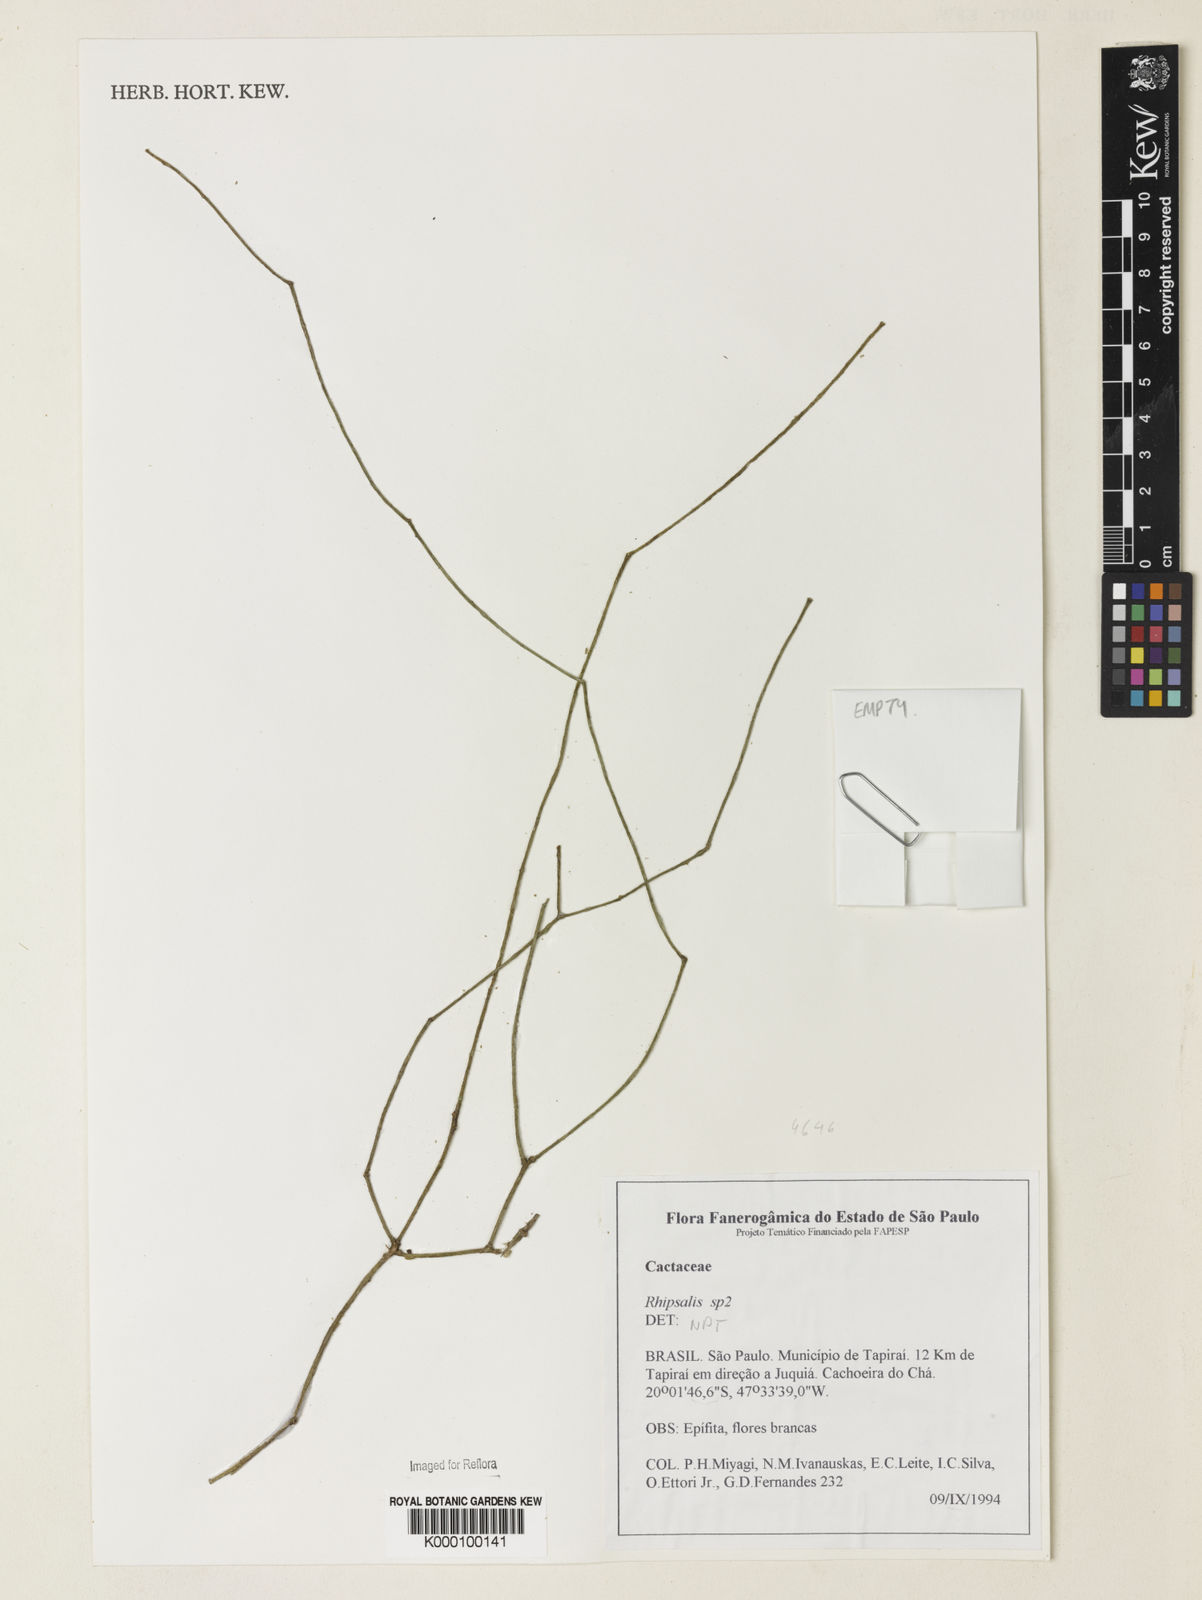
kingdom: Plantae
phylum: Tracheophyta
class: Magnoliopsida
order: Caryophyllales
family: Cactaceae
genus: Rhipsalis
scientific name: Rhipsalis
